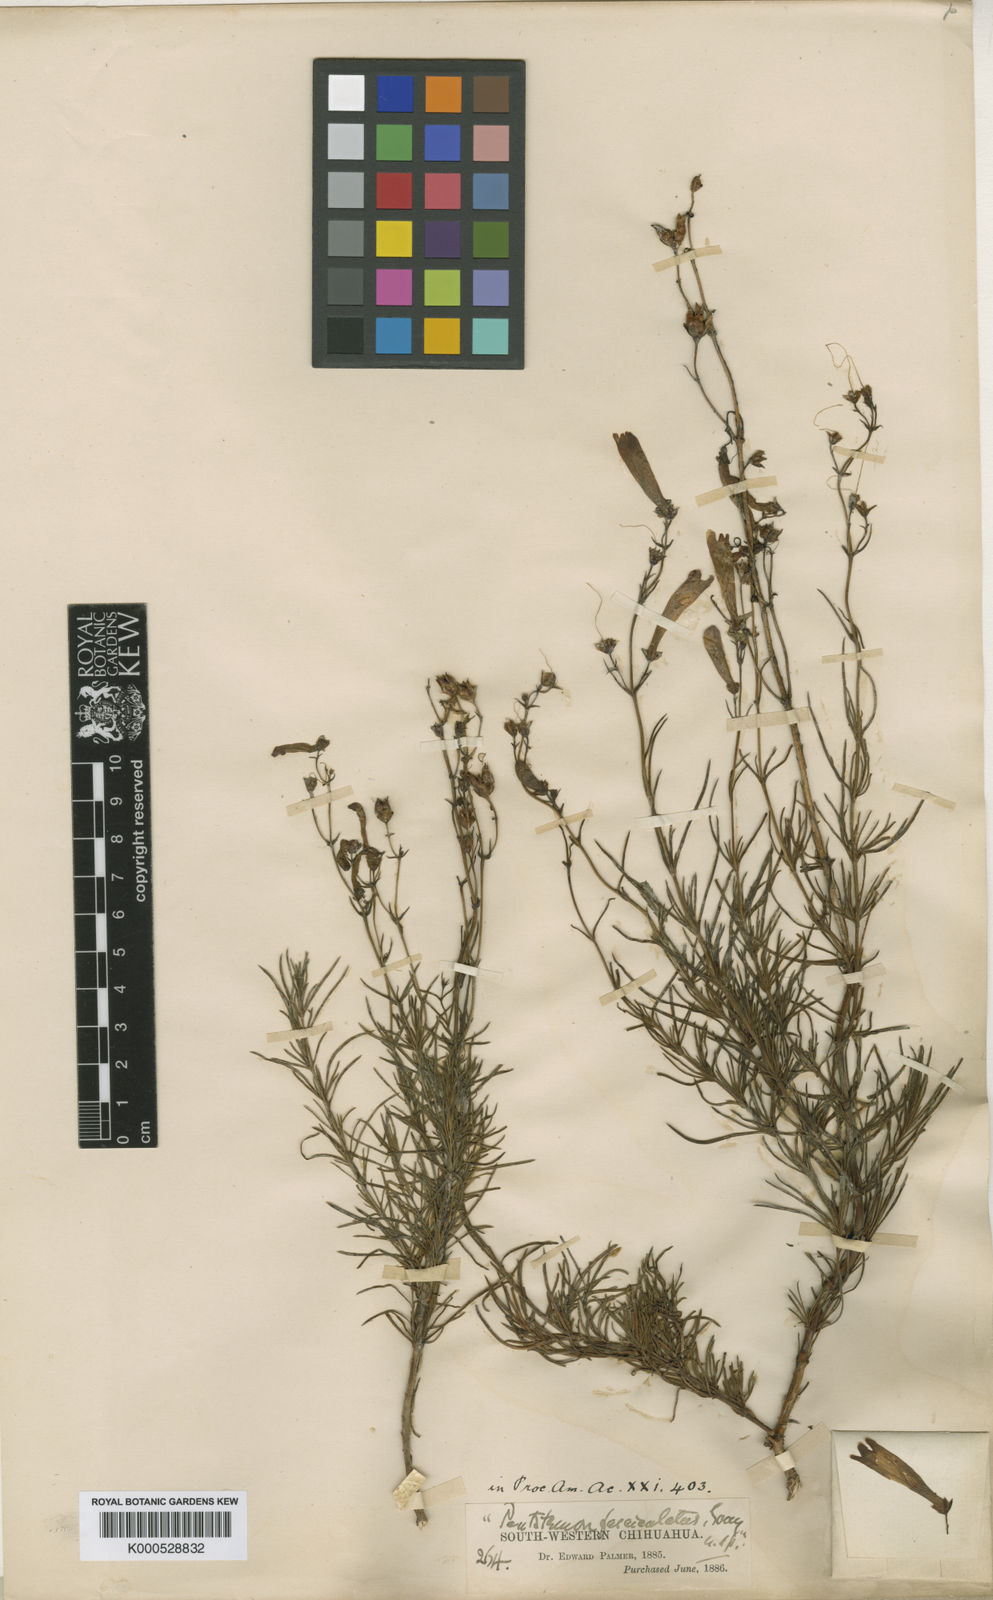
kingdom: Plantae
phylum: Tracheophyta
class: Magnoliopsida
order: Lamiales
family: Plantaginaceae
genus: Penstemon
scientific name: Penstemon fasciculatus
